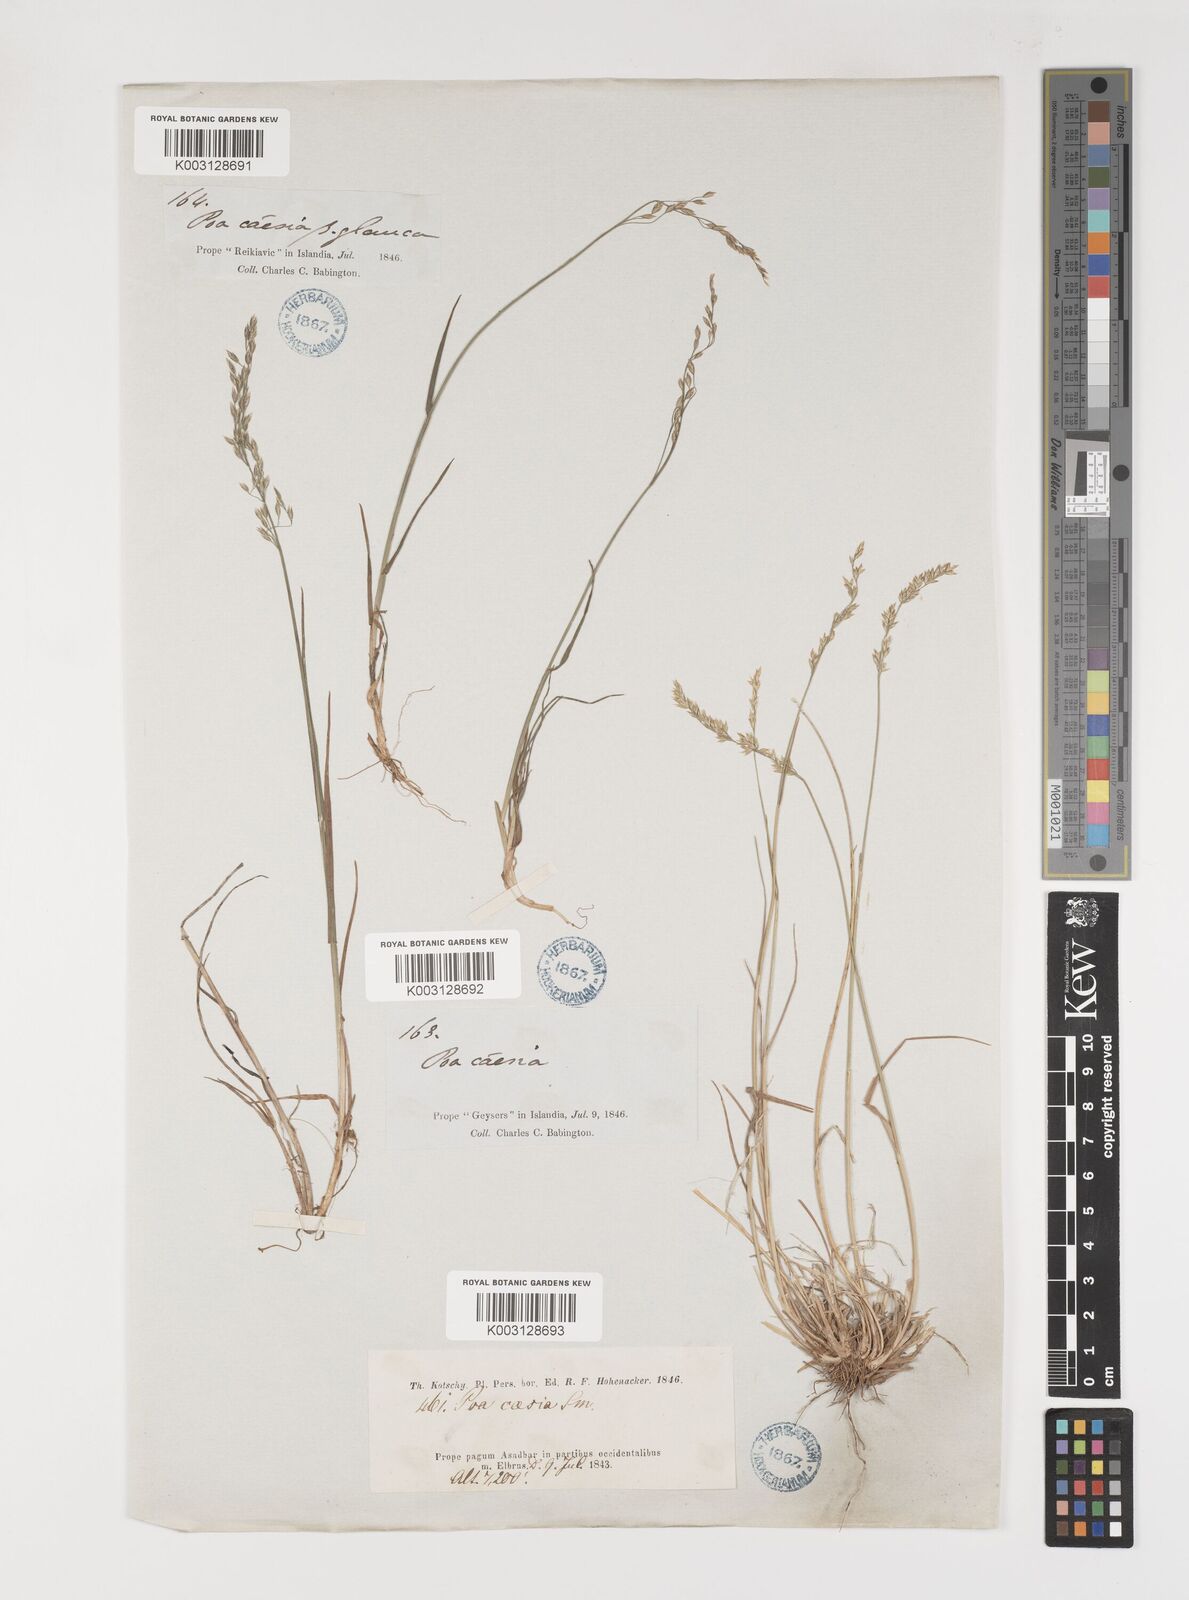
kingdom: Plantae
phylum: Tracheophyta
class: Liliopsida
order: Poales
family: Poaceae
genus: Poa
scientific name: Poa araratica
